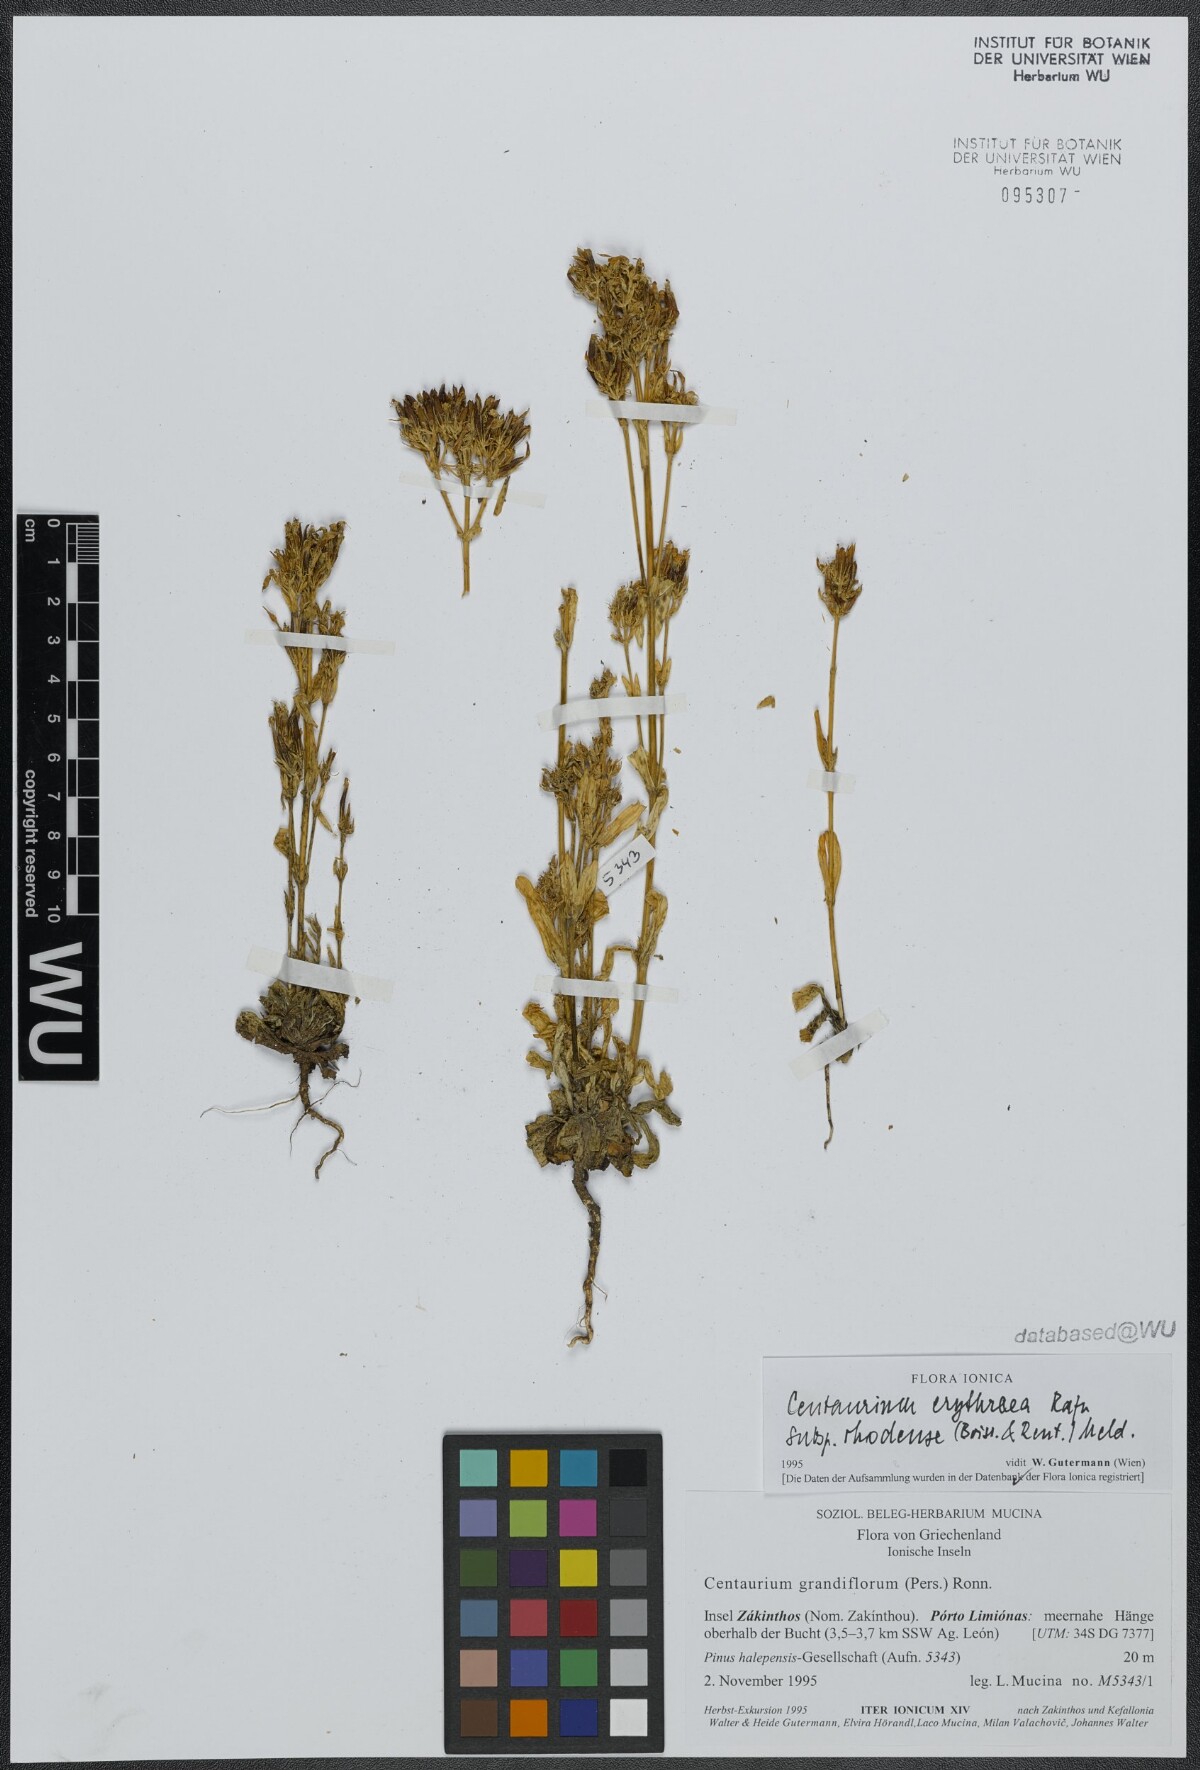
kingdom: Plantae
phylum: Tracheophyta
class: Magnoliopsida
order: Gentianales
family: Gentianaceae
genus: Centaurium
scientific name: Centaurium erythraea
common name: Common centaury
